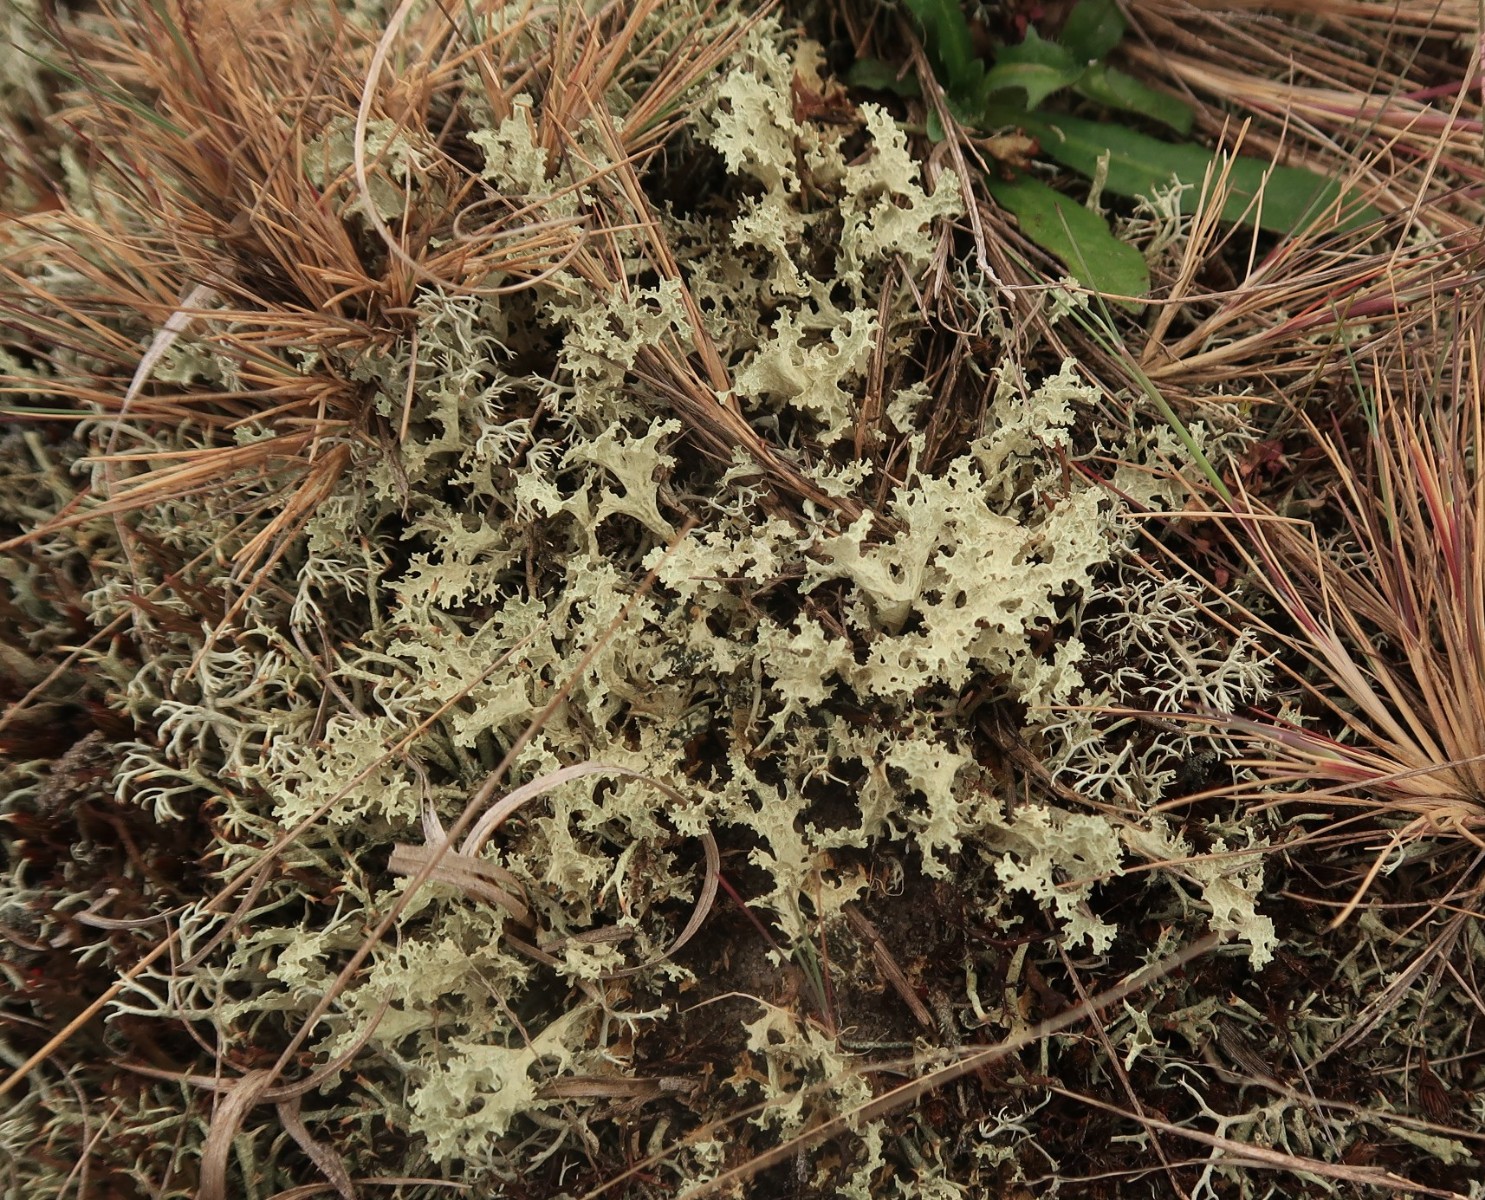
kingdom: Fungi
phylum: Ascomycota
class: Lecanoromycetes
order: Lecanorales
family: Parmeliaceae
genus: Nephromopsis
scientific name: Nephromopsis nivalis
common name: sne-kruslav
